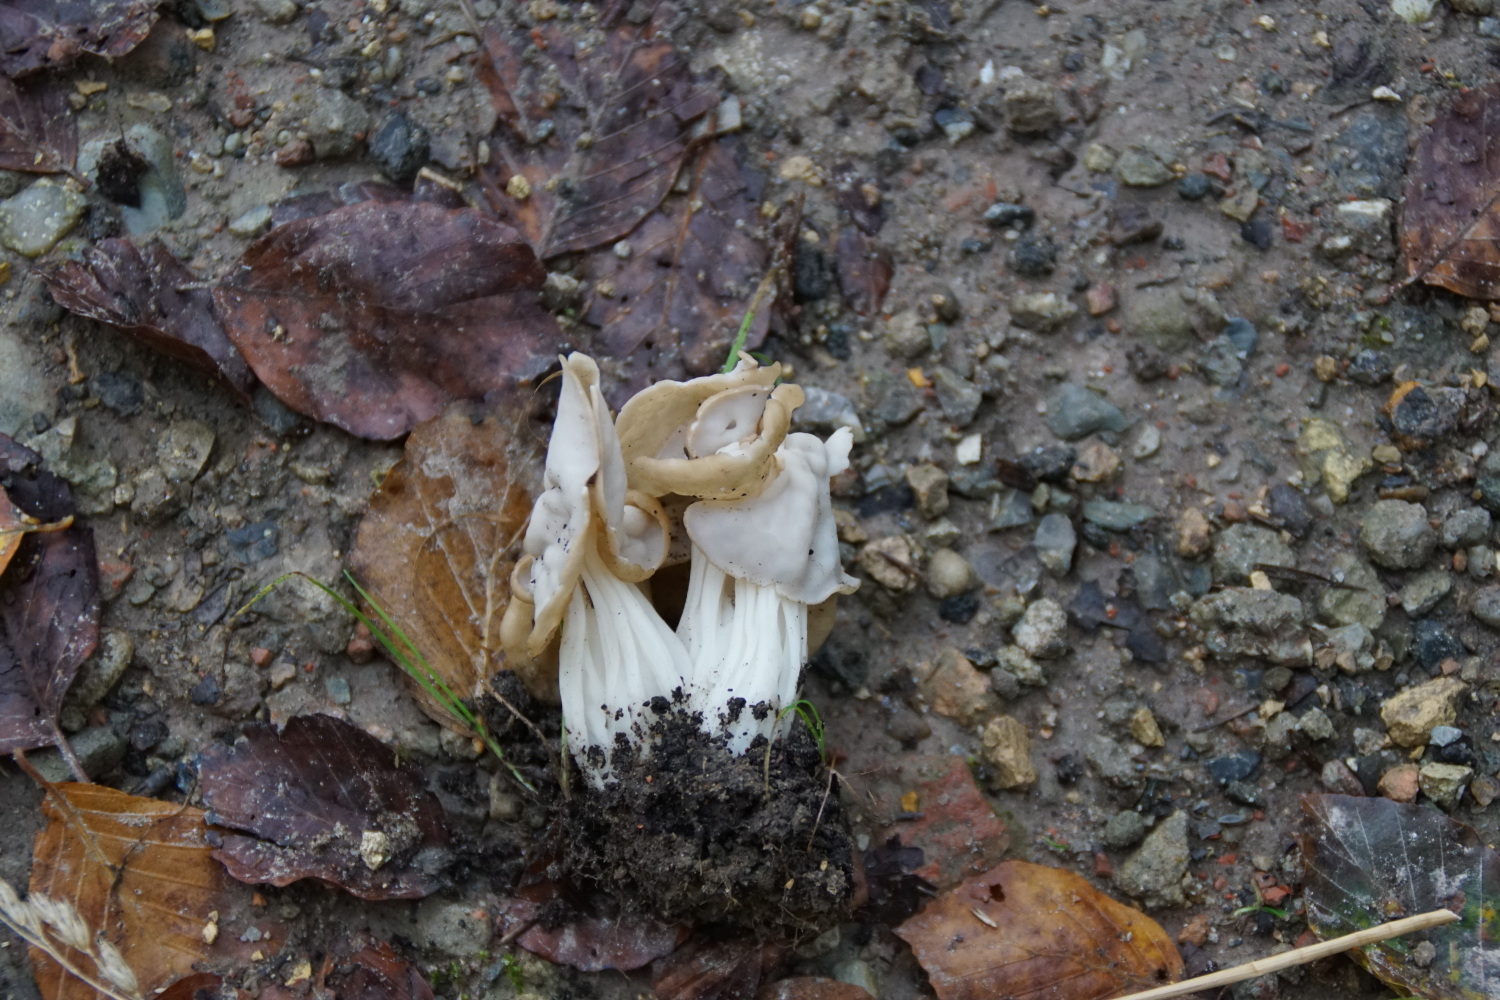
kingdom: Fungi
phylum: Ascomycota
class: Pezizomycetes
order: Pezizales
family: Helvellaceae
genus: Helvella
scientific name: Helvella crispa
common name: kruset foldhat
